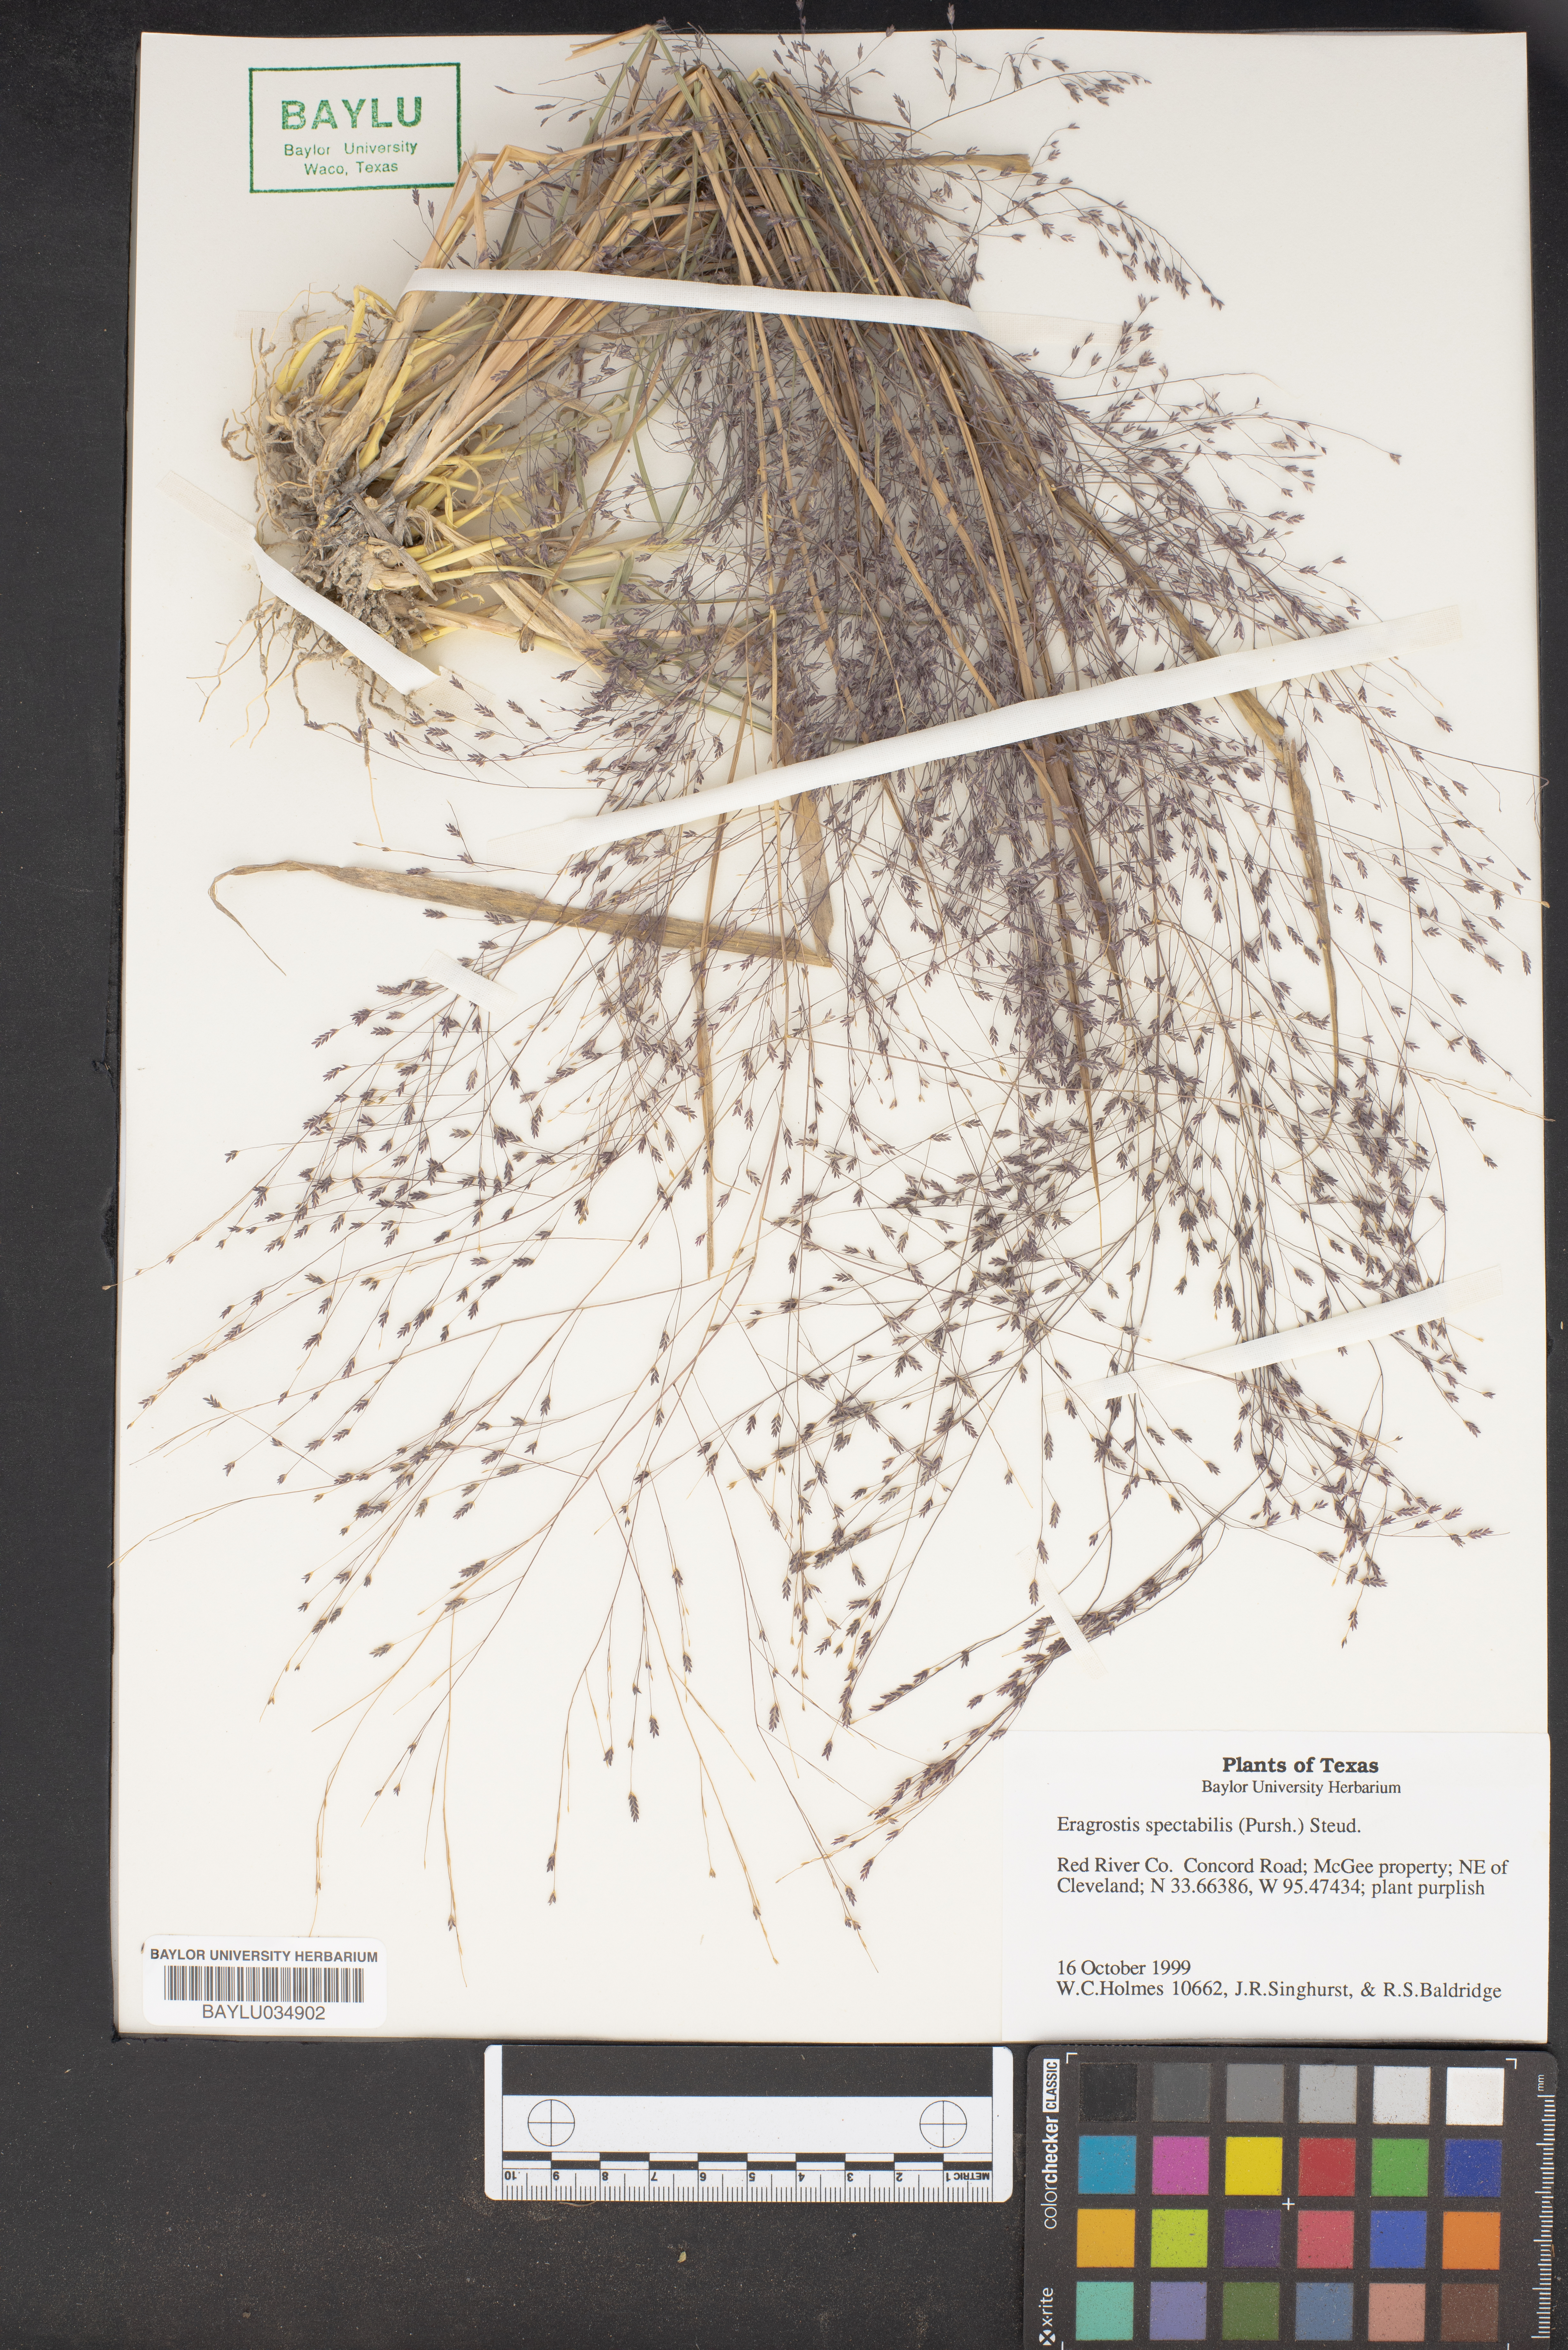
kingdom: Plantae
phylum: Tracheophyta
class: Liliopsida
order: Poales
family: Poaceae
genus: Eragrostis
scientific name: Eragrostis spectabilis
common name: Petticoat-climber
